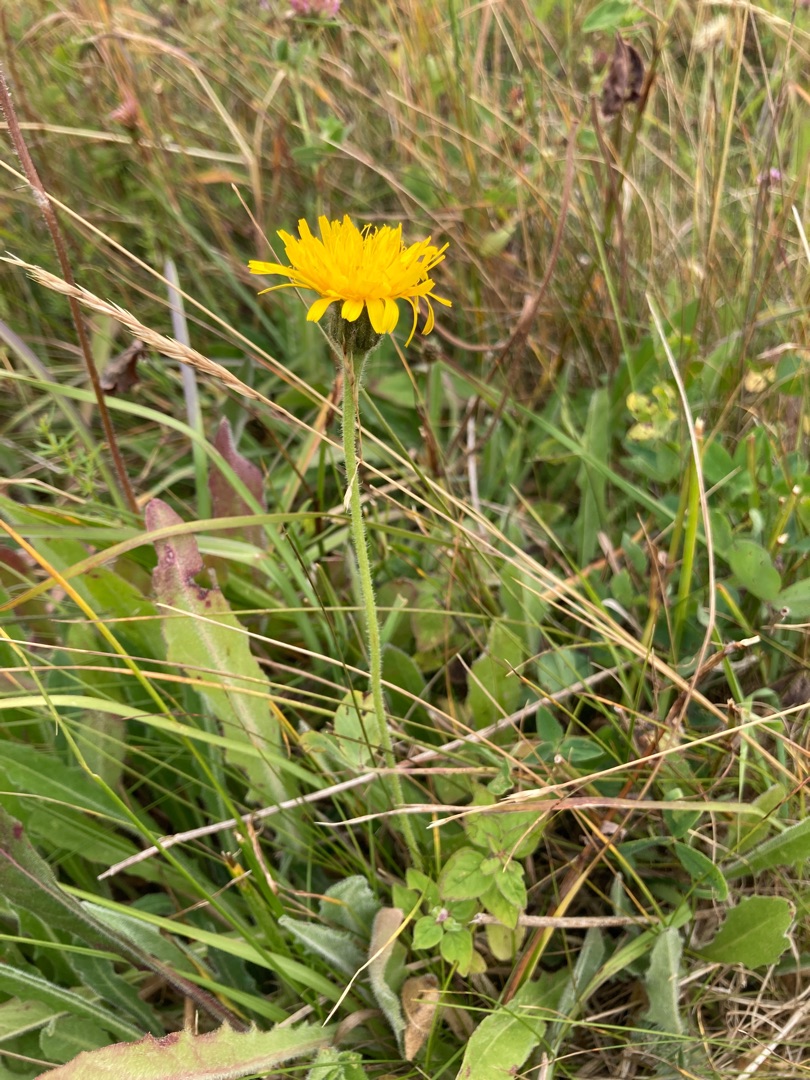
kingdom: Plantae
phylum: Tracheophyta
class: Magnoliopsida
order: Asterales
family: Asteraceae
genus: Leontodon
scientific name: Leontodon hispidus
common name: Stivhåret borst
